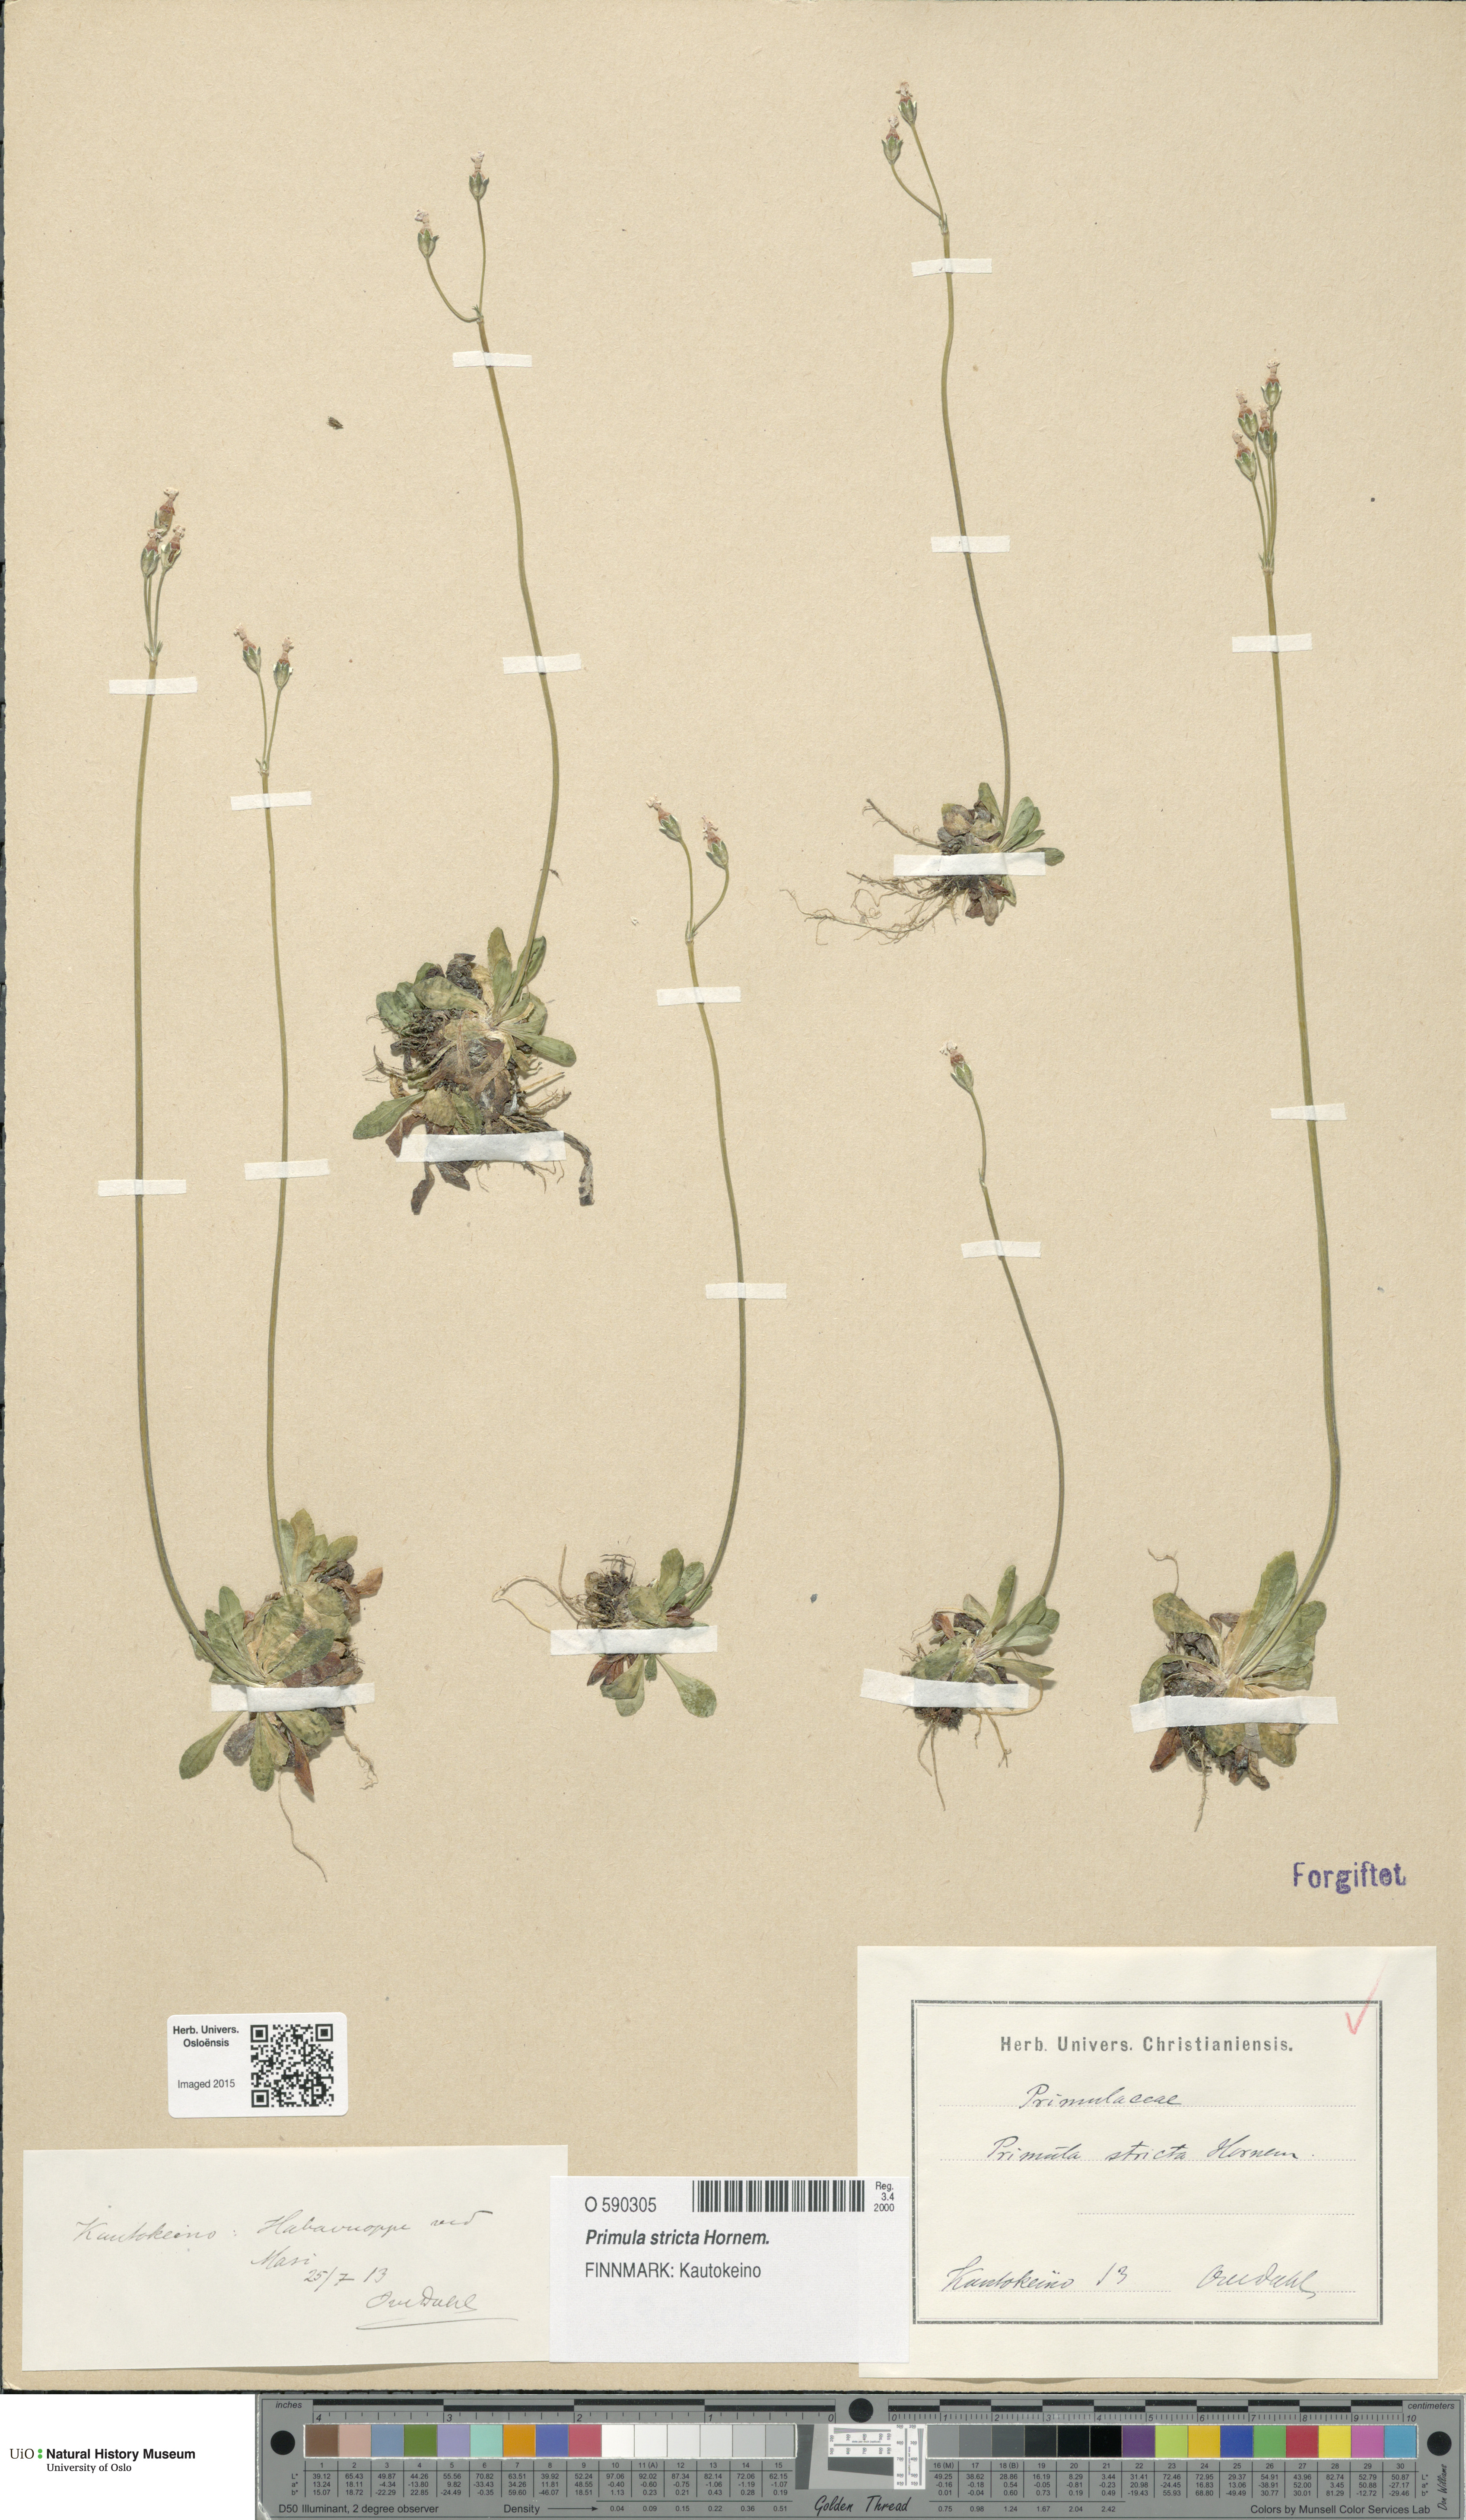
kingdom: Plantae
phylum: Tracheophyta
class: Magnoliopsida
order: Ericales
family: Primulaceae
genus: Primula
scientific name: Primula stricta
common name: Coastal primrose
